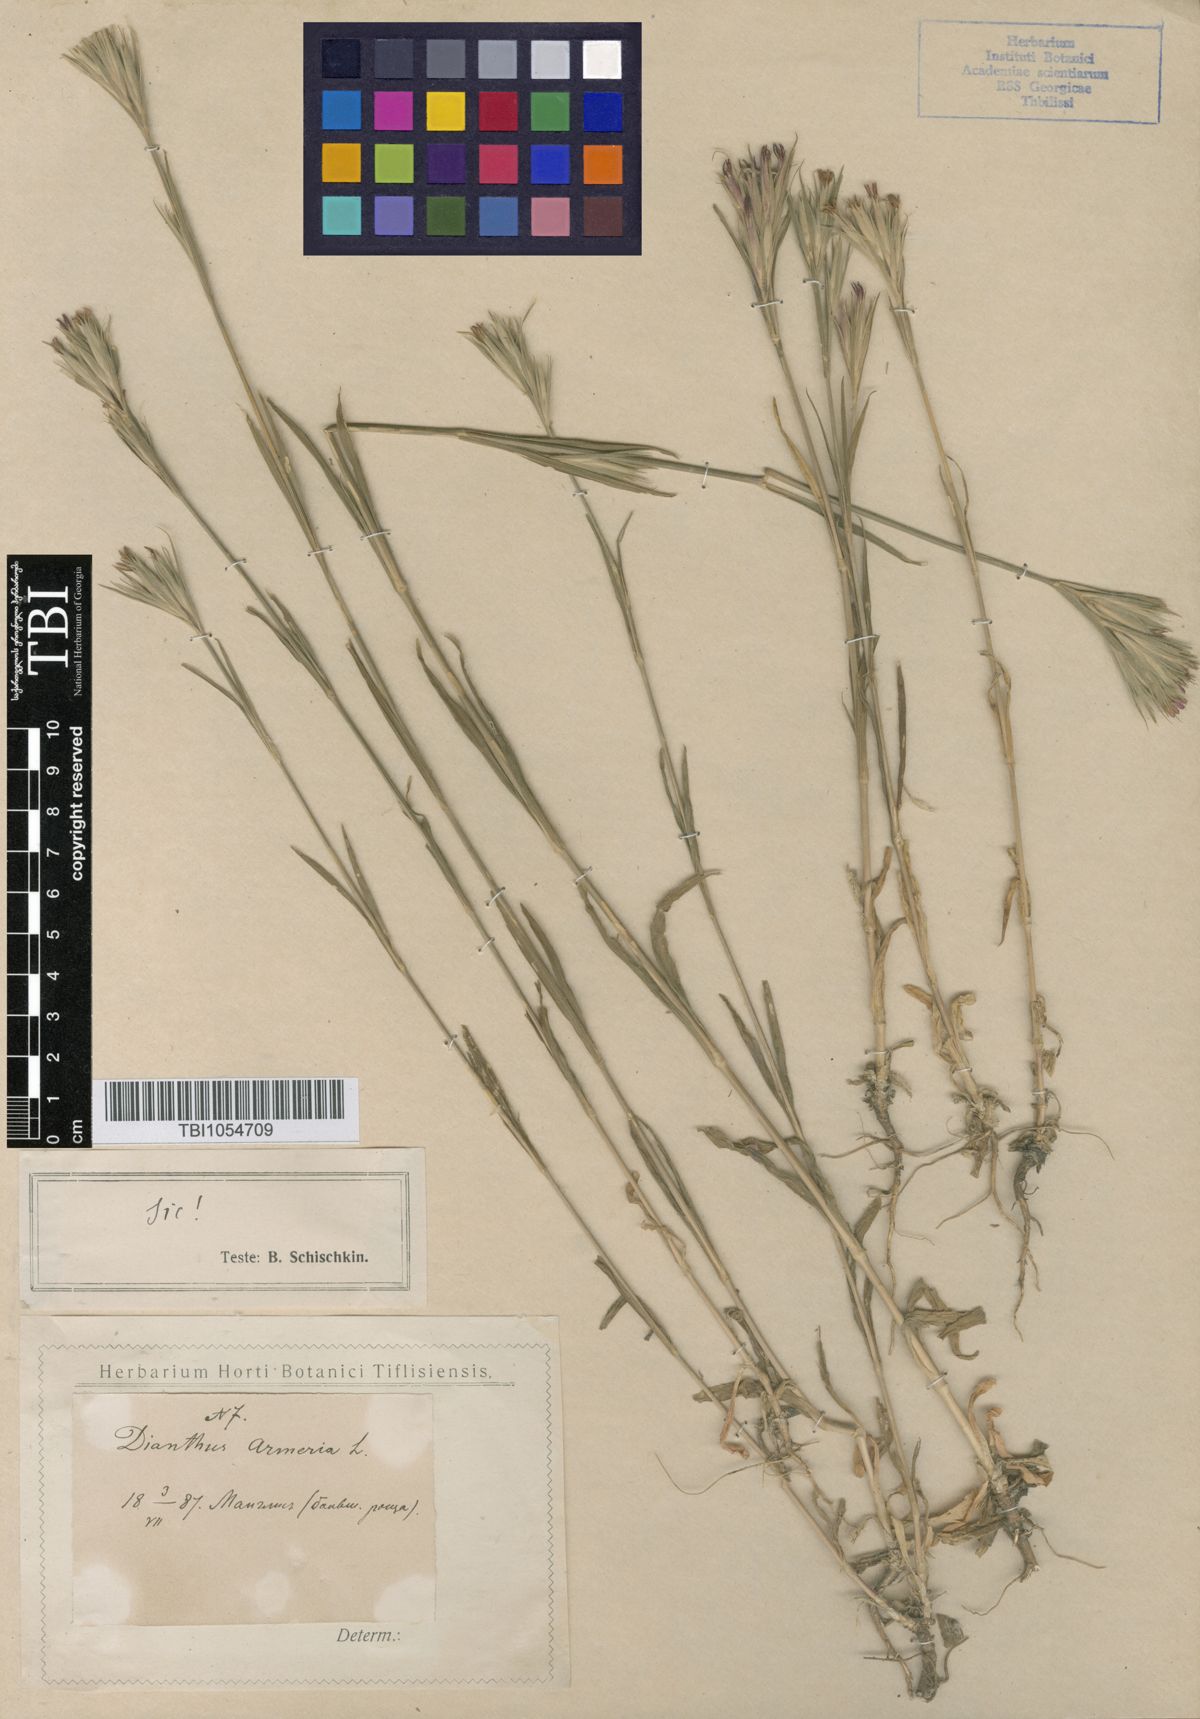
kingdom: Plantae
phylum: Tracheophyta
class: Magnoliopsida
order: Caryophyllales
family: Caryophyllaceae
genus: Dianthus
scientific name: Dianthus armeria
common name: Deptford pink
